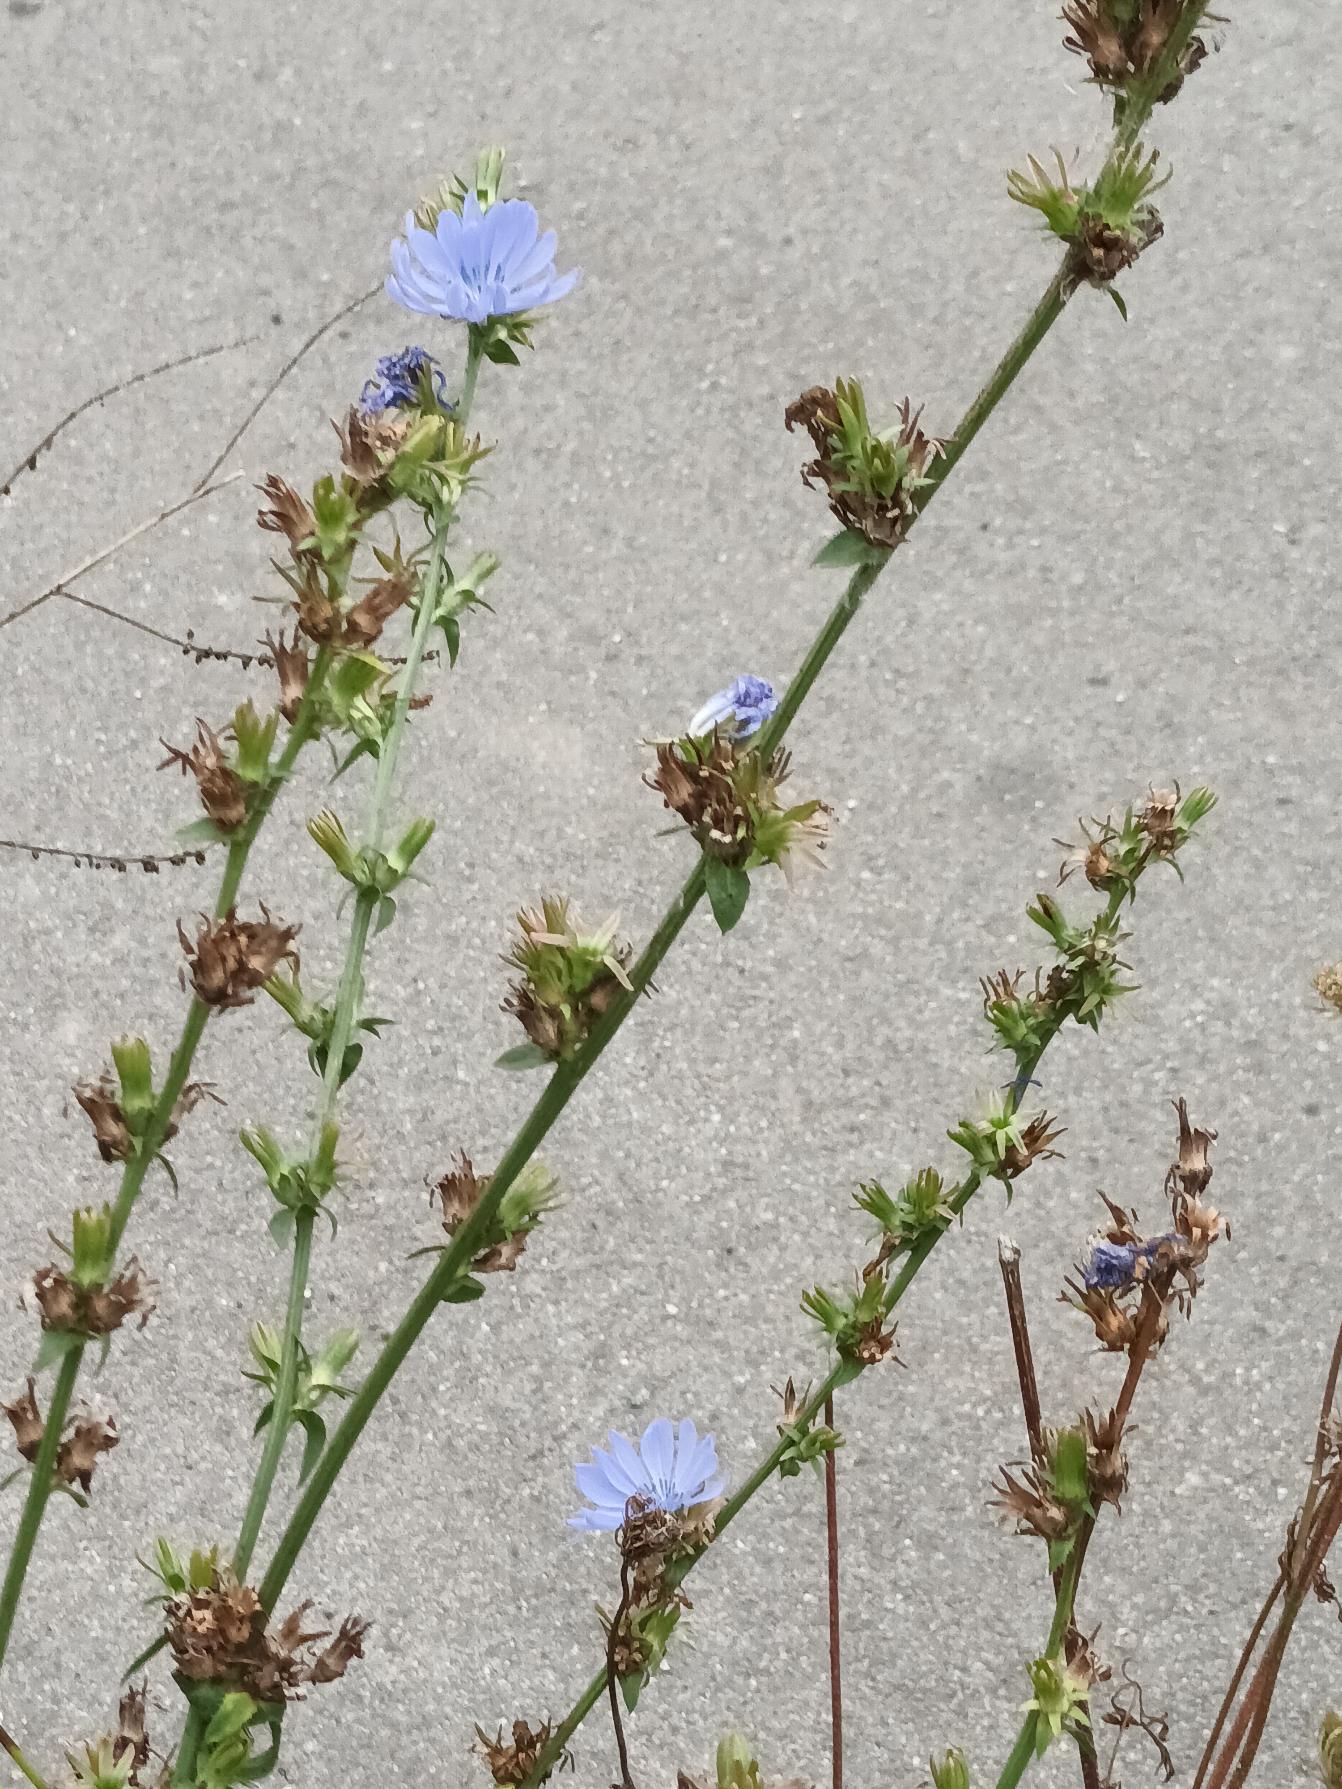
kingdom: Plantae
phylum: Tracheophyta
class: Magnoliopsida
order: Asterales
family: Asteraceae
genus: Cichorium
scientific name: Cichorium intybus
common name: Cikorie
